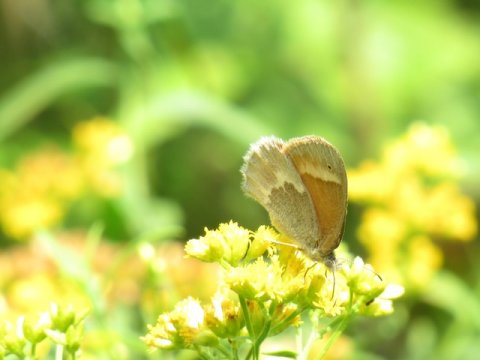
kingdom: Animalia
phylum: Arthropoda
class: Insecta
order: Lepidoptera
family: Nymphalidae
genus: Coenonympha
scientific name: Coenonympha tullia
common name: Large Heath
